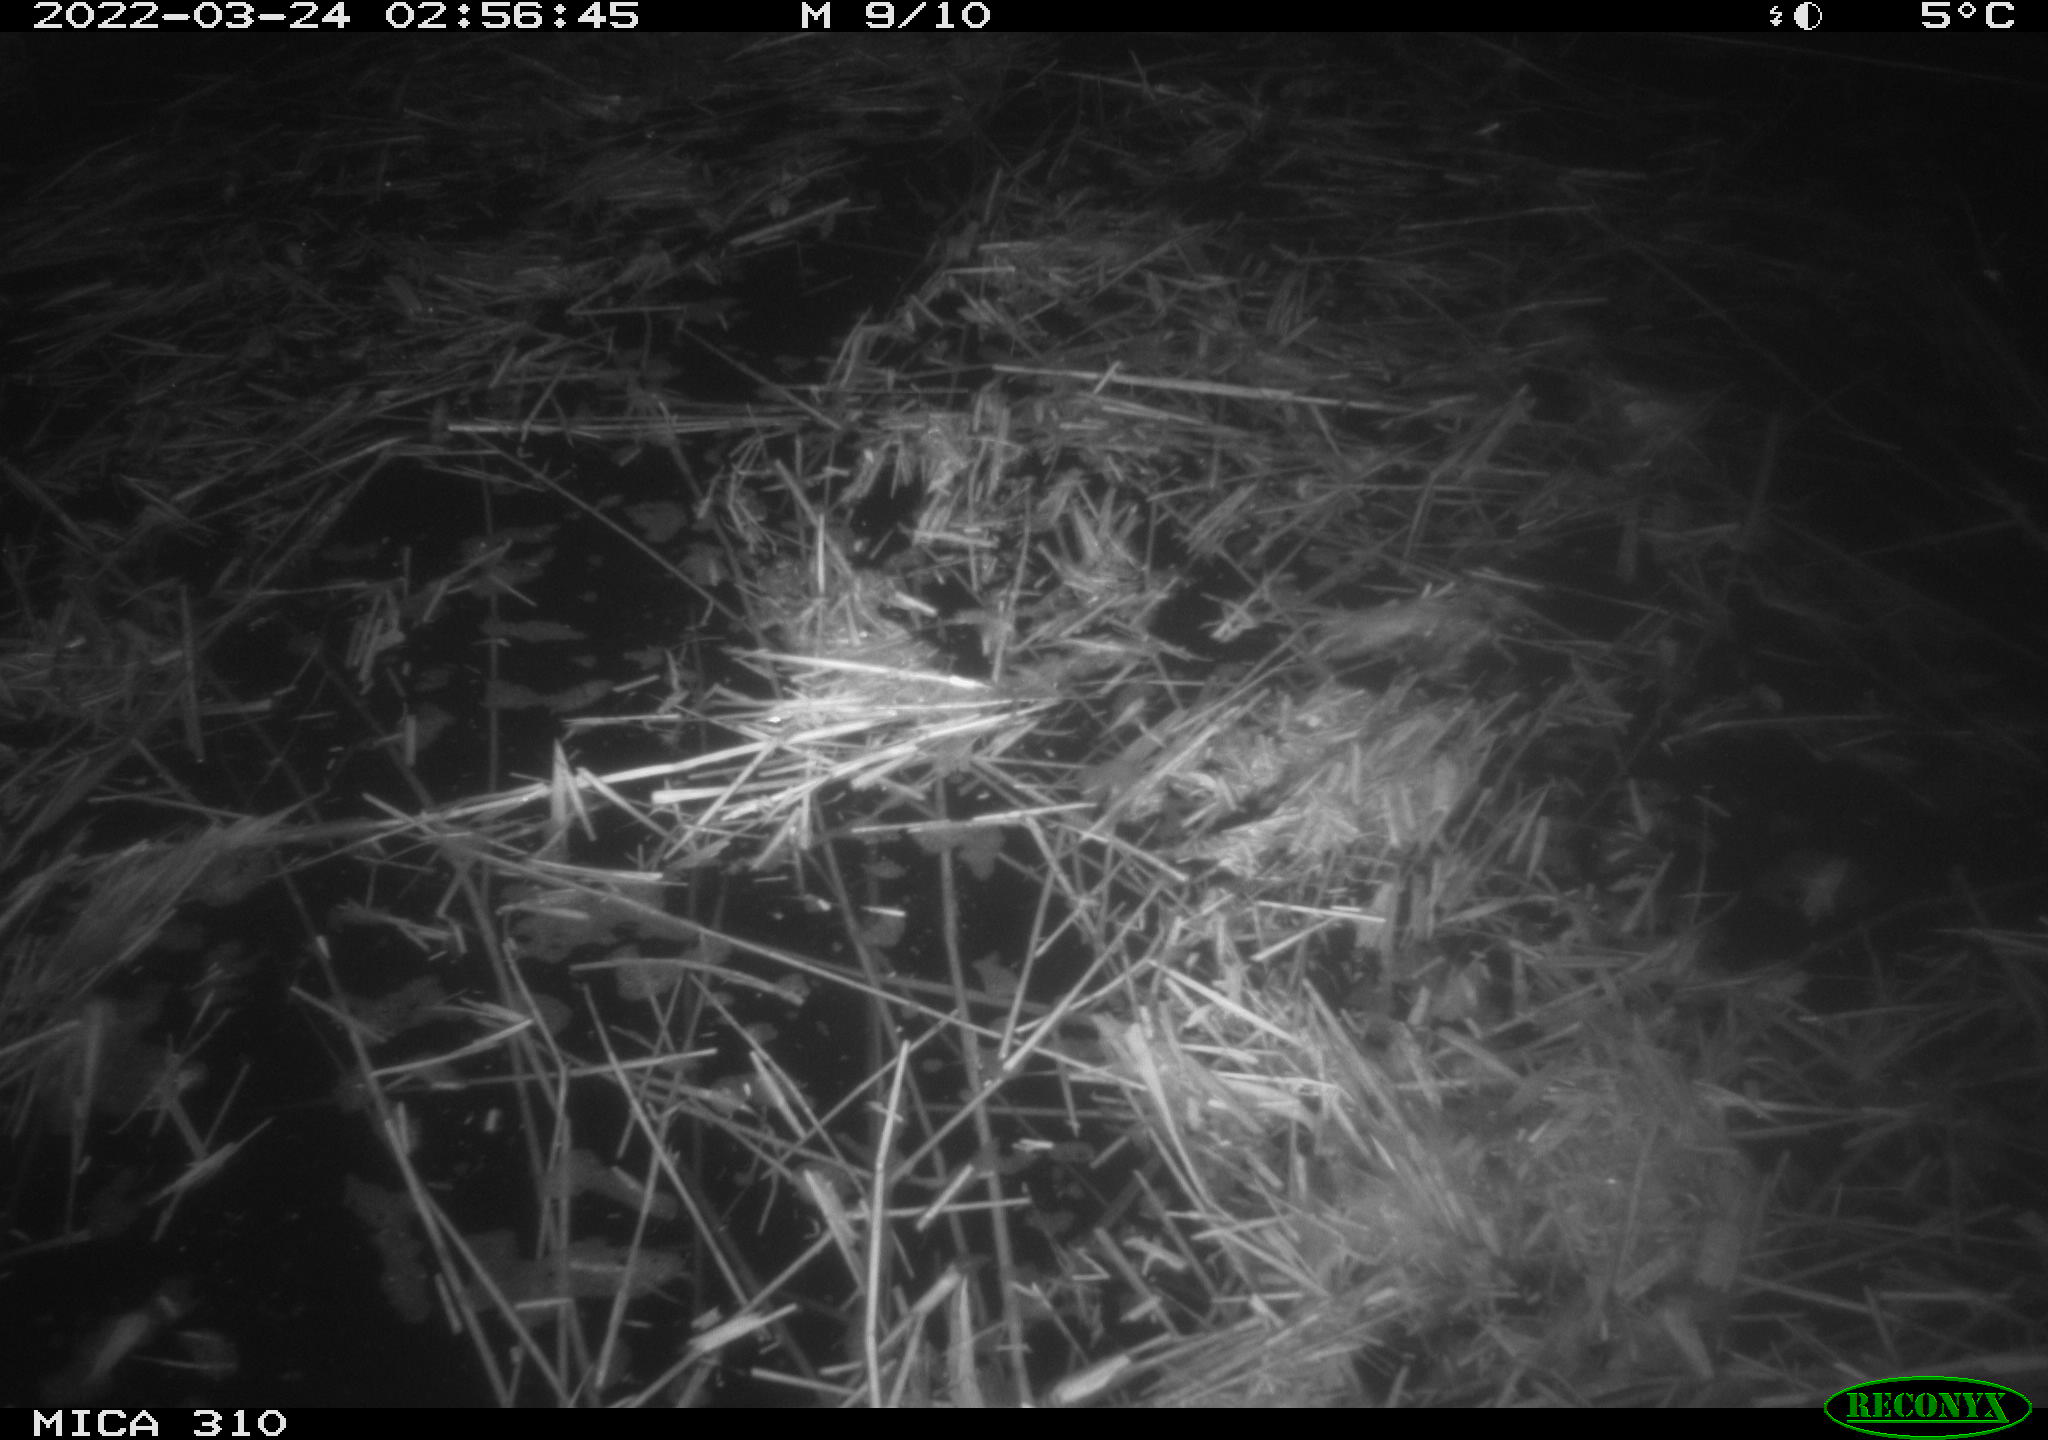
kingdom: Animalia
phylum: Chordata
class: Aves
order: Anseriformes
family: Anatidae
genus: Anas
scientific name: Anas platyrhynchos
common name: Mallard
